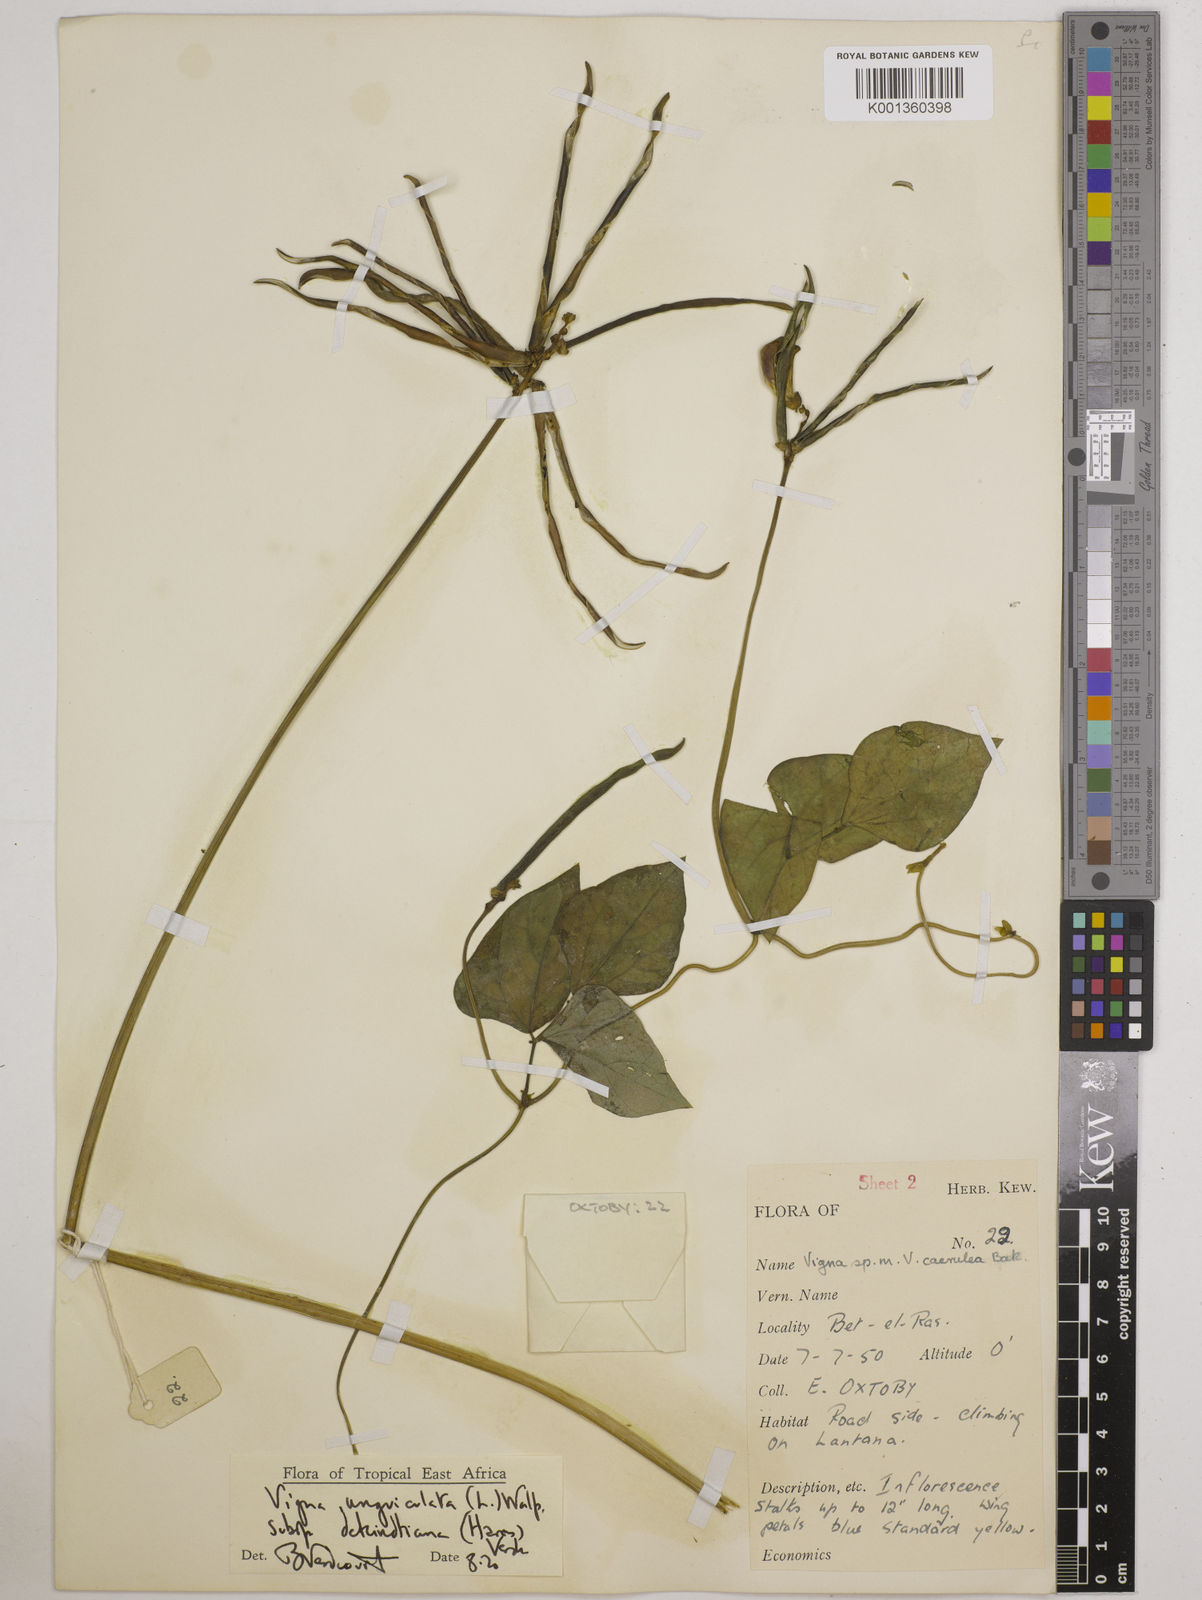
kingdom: Plantae
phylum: Tracheophyta
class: Magnoliopsida
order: Fabales
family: Fabaceae
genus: Vigna
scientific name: Vigna
